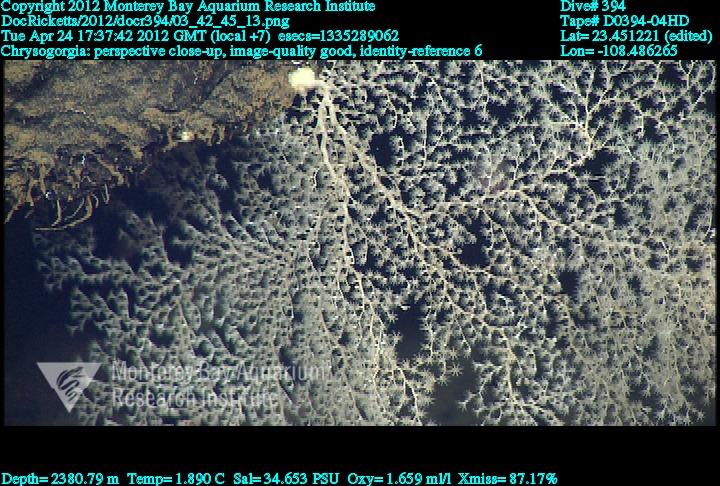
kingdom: Animalia
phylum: Cnidaria
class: Anthozoa
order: Scleralcyonacea
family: Chrysogorgiidae
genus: Chrysogorgia
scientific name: Chrysogorgia
